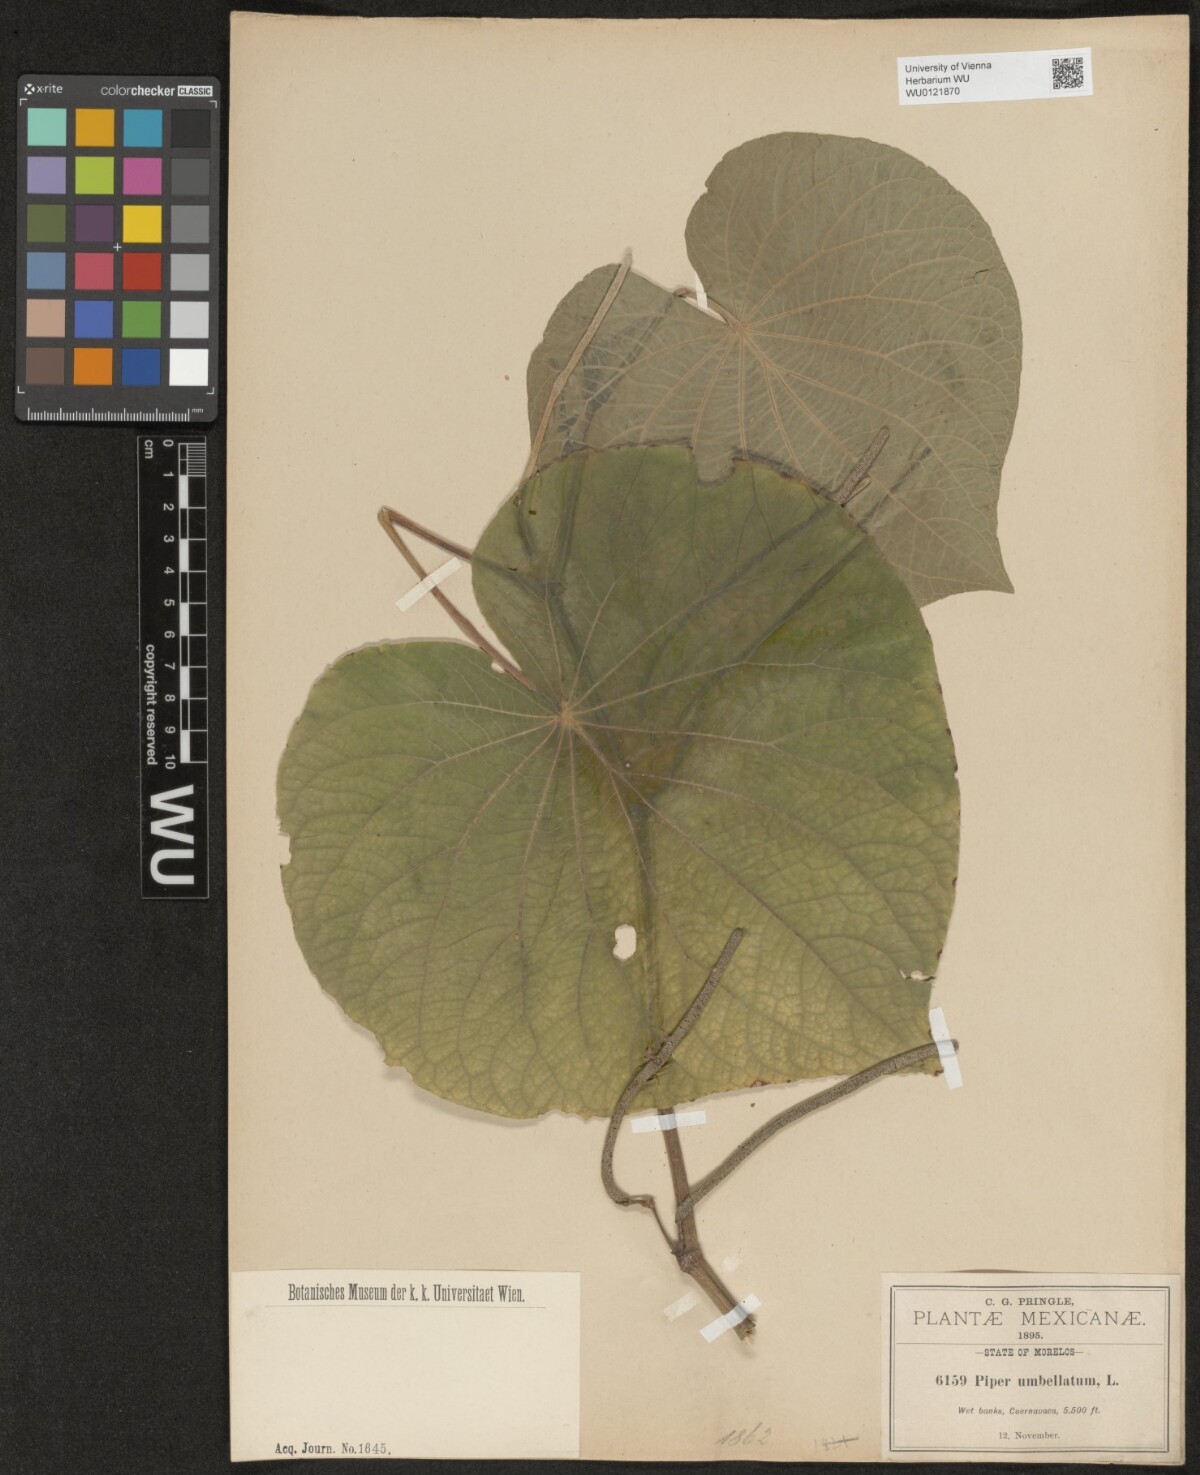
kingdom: Plantae
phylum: Tracheophyta
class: Magnoliopsida
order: Piperales
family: Piperaceae
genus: Piper
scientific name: Piper umbellatum
